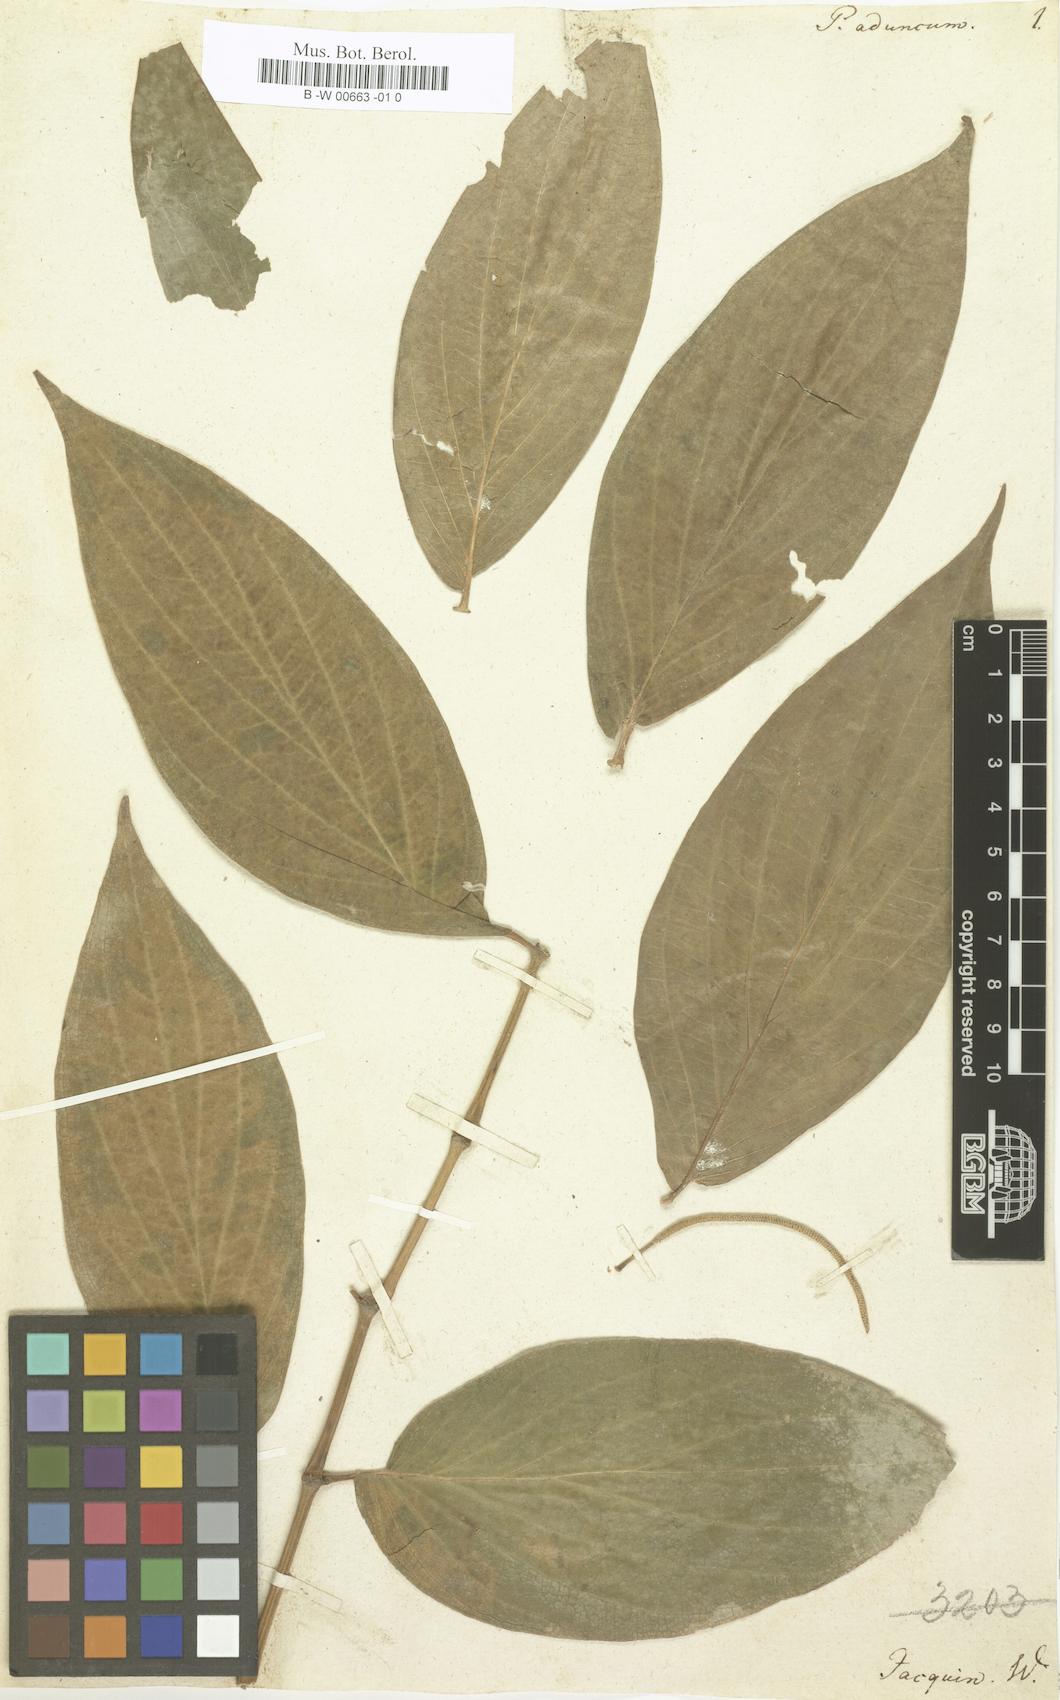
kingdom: Plantae
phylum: Tracheophyta
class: Magnoliopsida
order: Piperales
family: Piperaceae
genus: Piper
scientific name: Piper aduncum
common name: Spiked pepper
